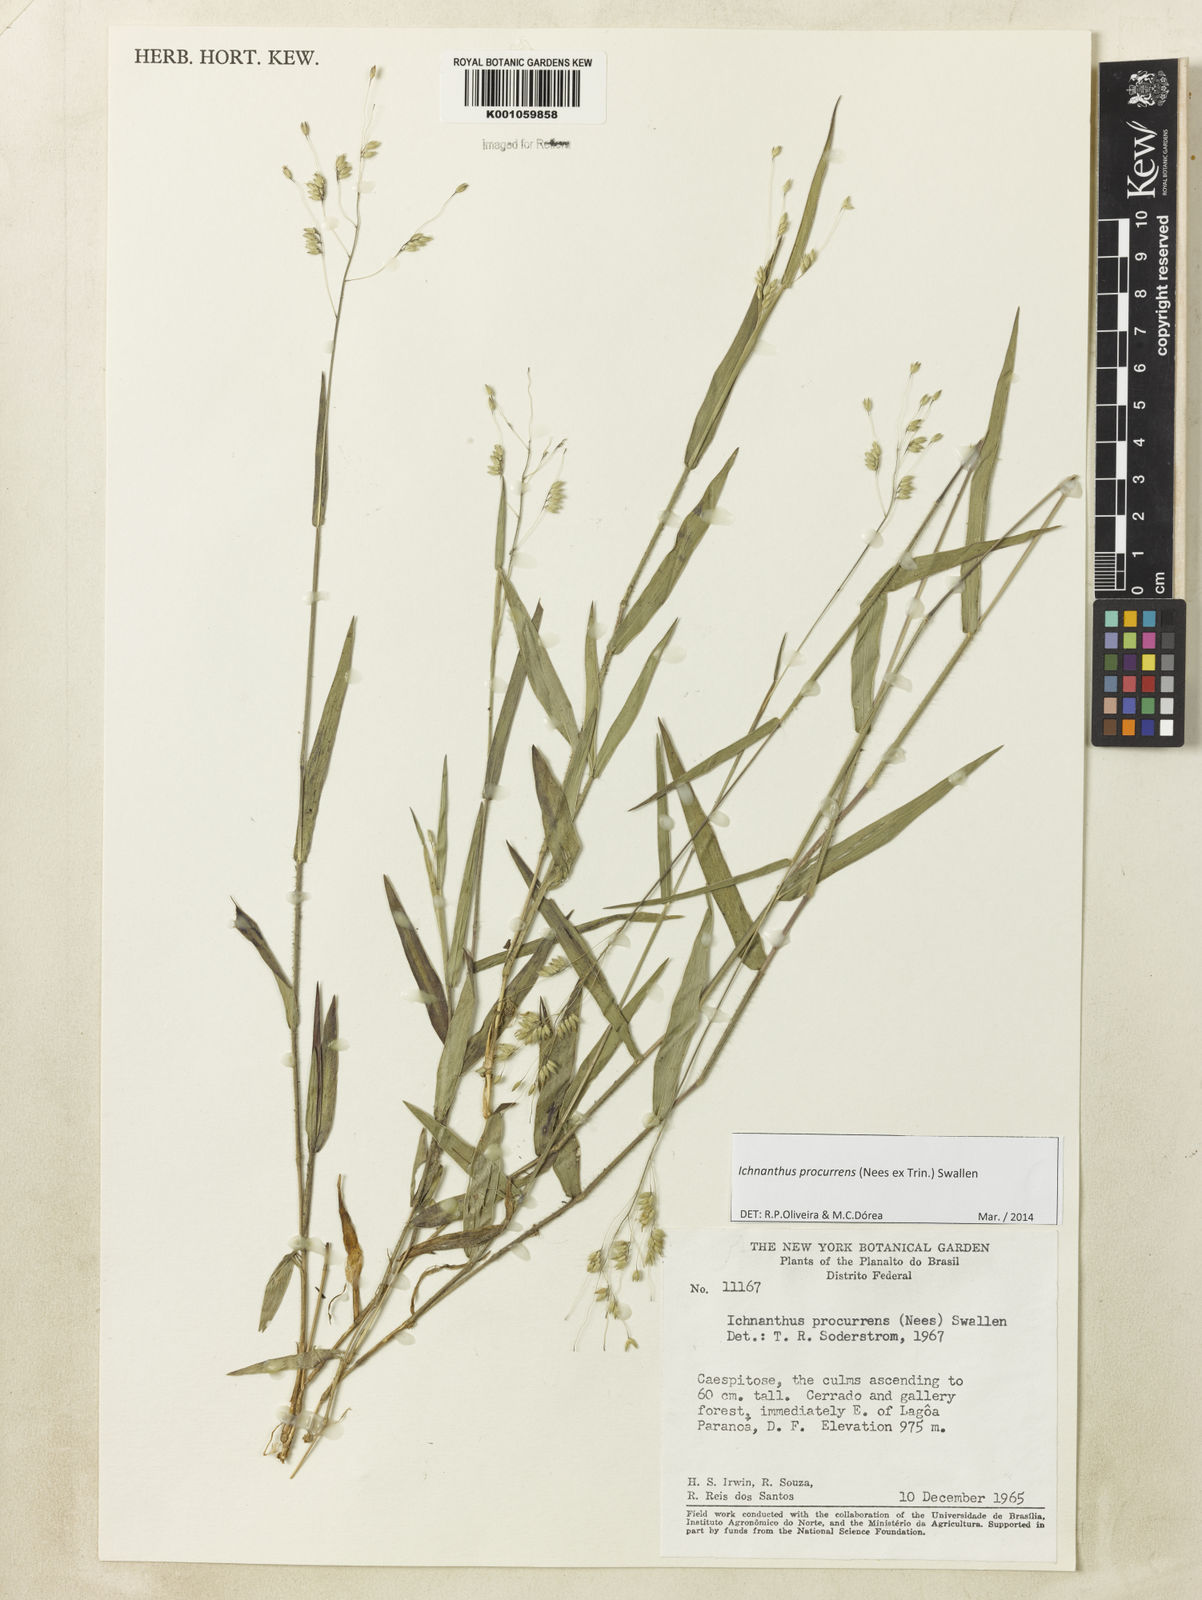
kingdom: Plantae
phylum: Tracheophyta
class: Liliopsida
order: Poales
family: Poaceae
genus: Oedochloa
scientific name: Oedochloa procurrens
